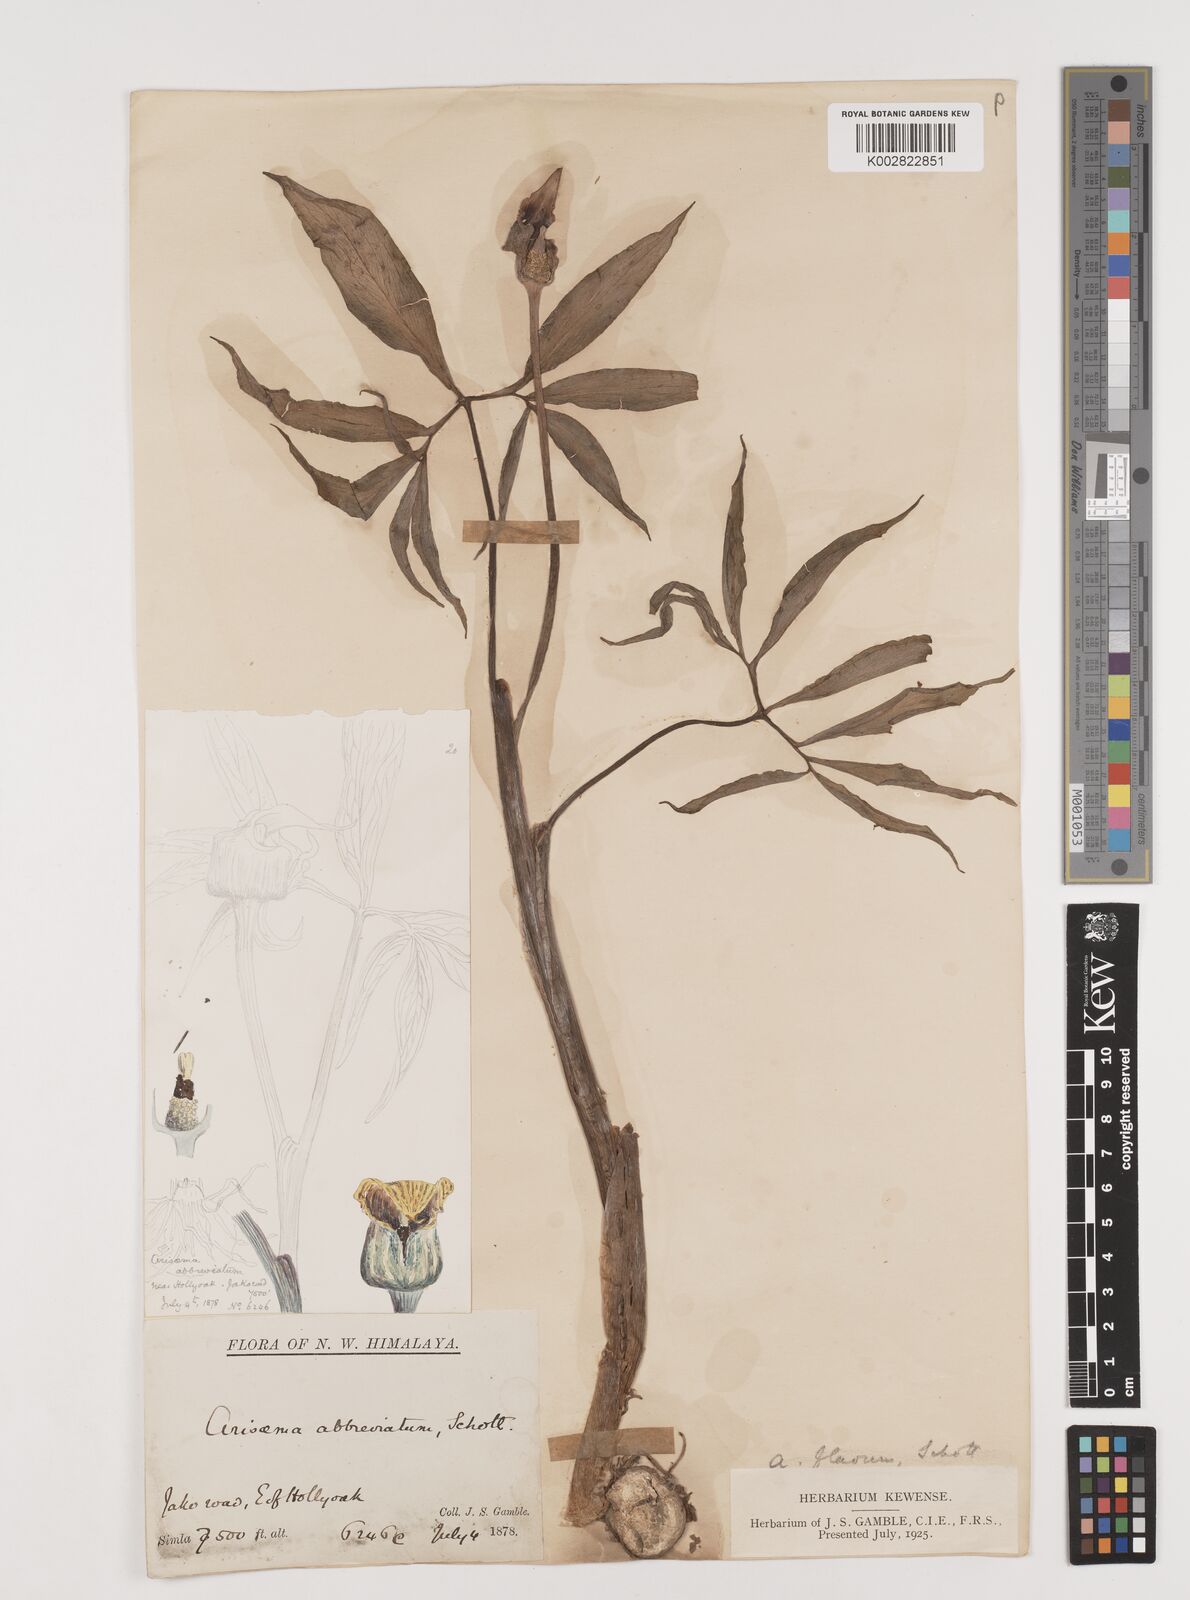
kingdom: Plantae
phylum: Tracheophyta
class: Liliopsida
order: Alismatales
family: Araceae
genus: Arisaema
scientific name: Arisaema flavum
